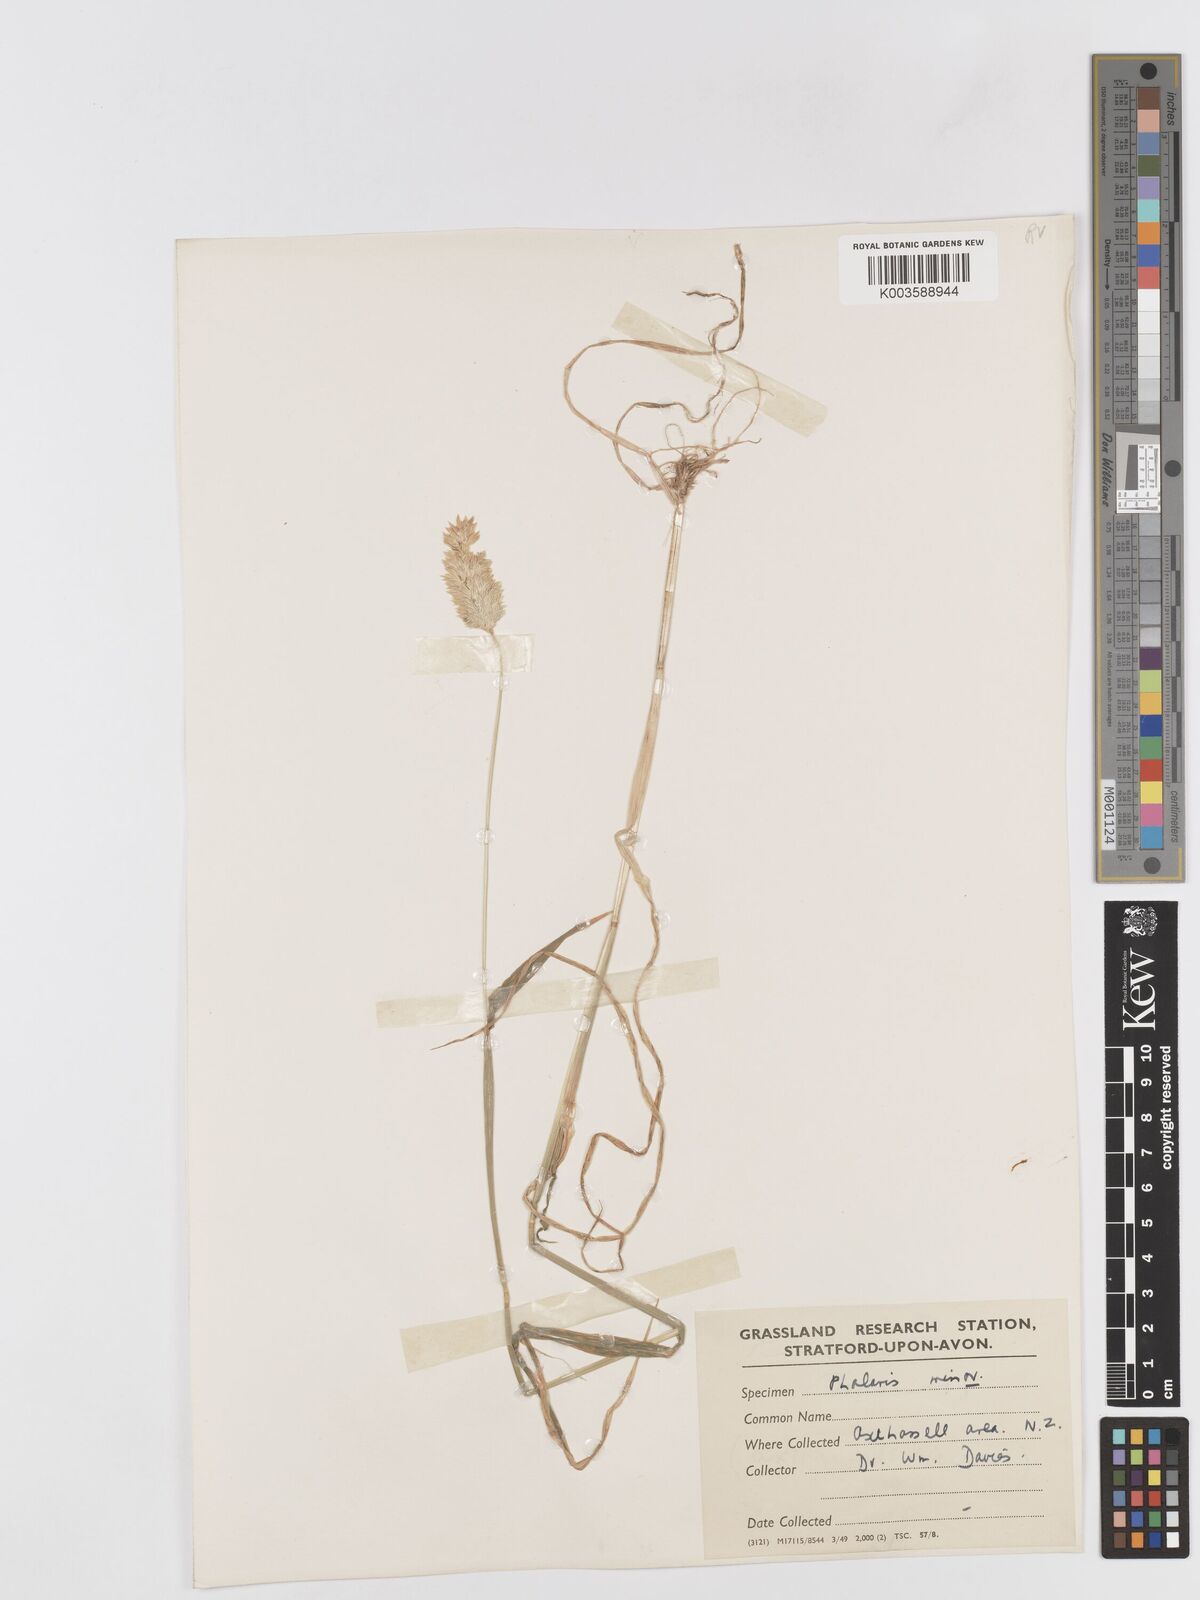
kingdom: Plantae
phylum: Tracheophyta
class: Liliopsida
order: Poales
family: Poaceae
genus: Phalaris
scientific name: Phalaris minor
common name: Littleseed canarygrass
